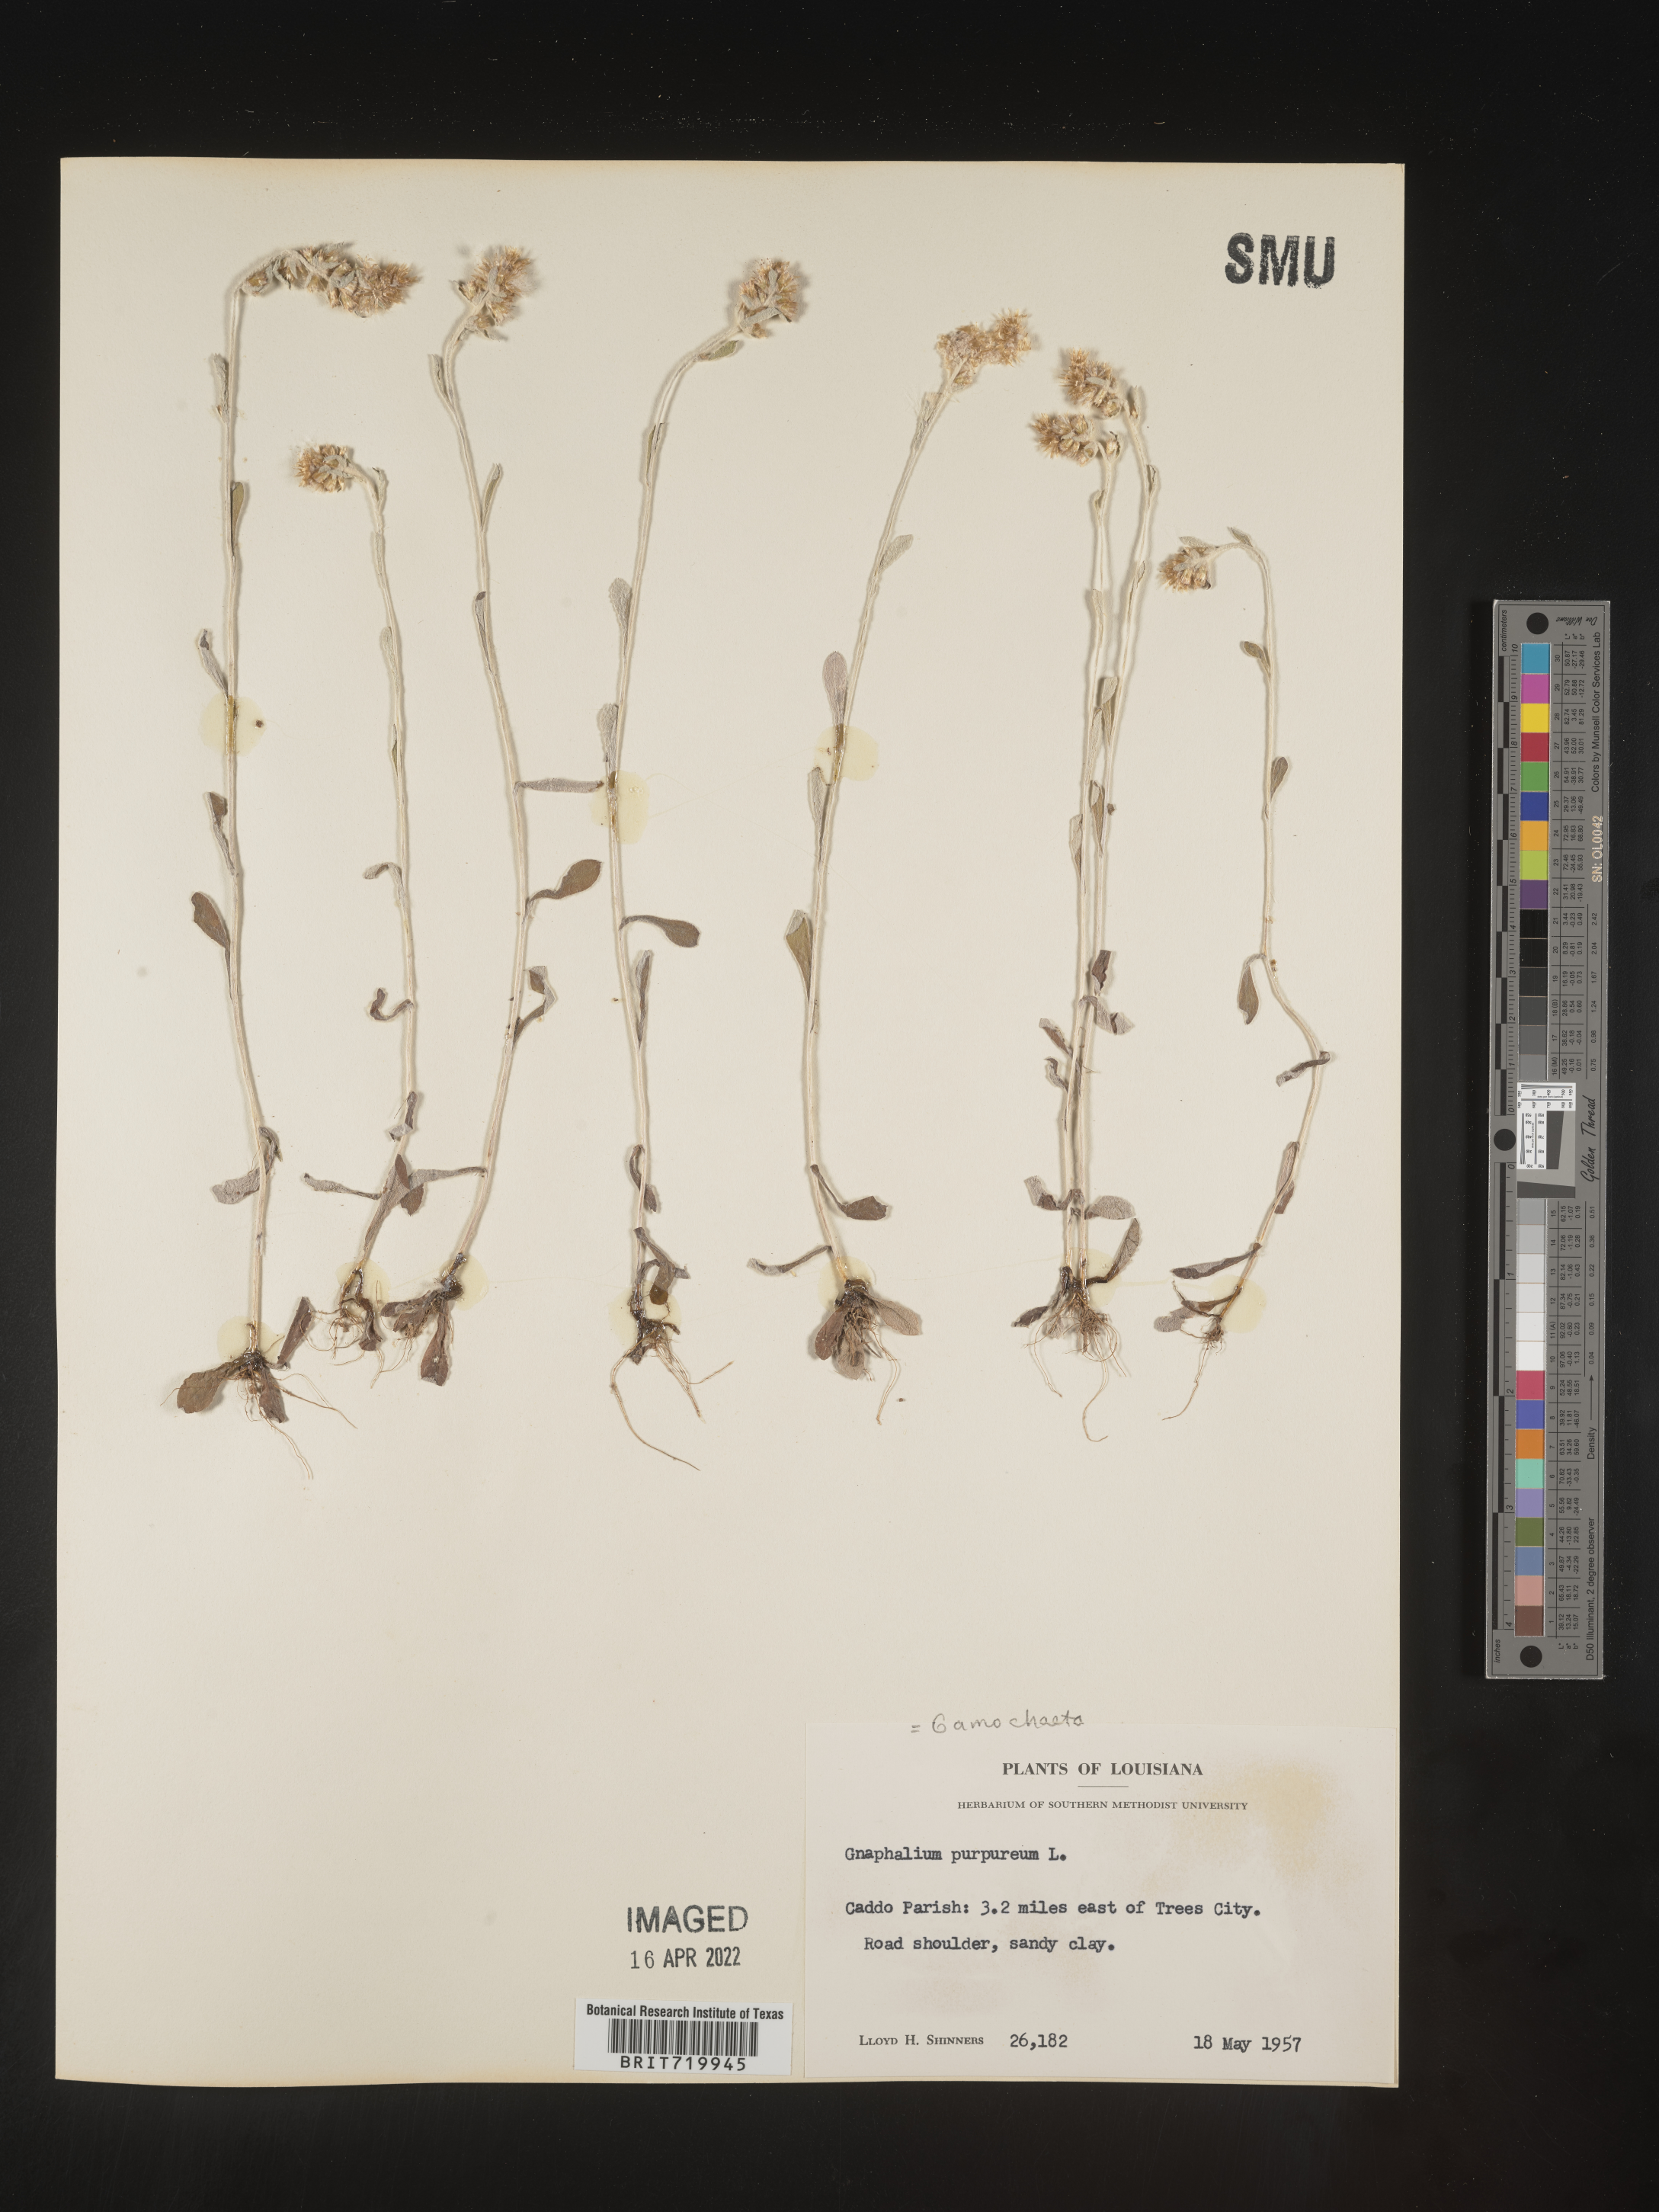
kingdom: Plantae
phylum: Tracheophyta
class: Magnoliopsida
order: Asterales
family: Asteraceae
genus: Gamochaeta
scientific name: Gamochaeta purpurea
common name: Purple cudweed
